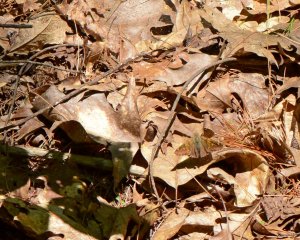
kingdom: Animalia
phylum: Arthropoda
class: Insecta
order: Lepidoptera
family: Hesperiidae
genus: Epargyreus
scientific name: Epargyreus clarus
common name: Silver-spotted Skipper
